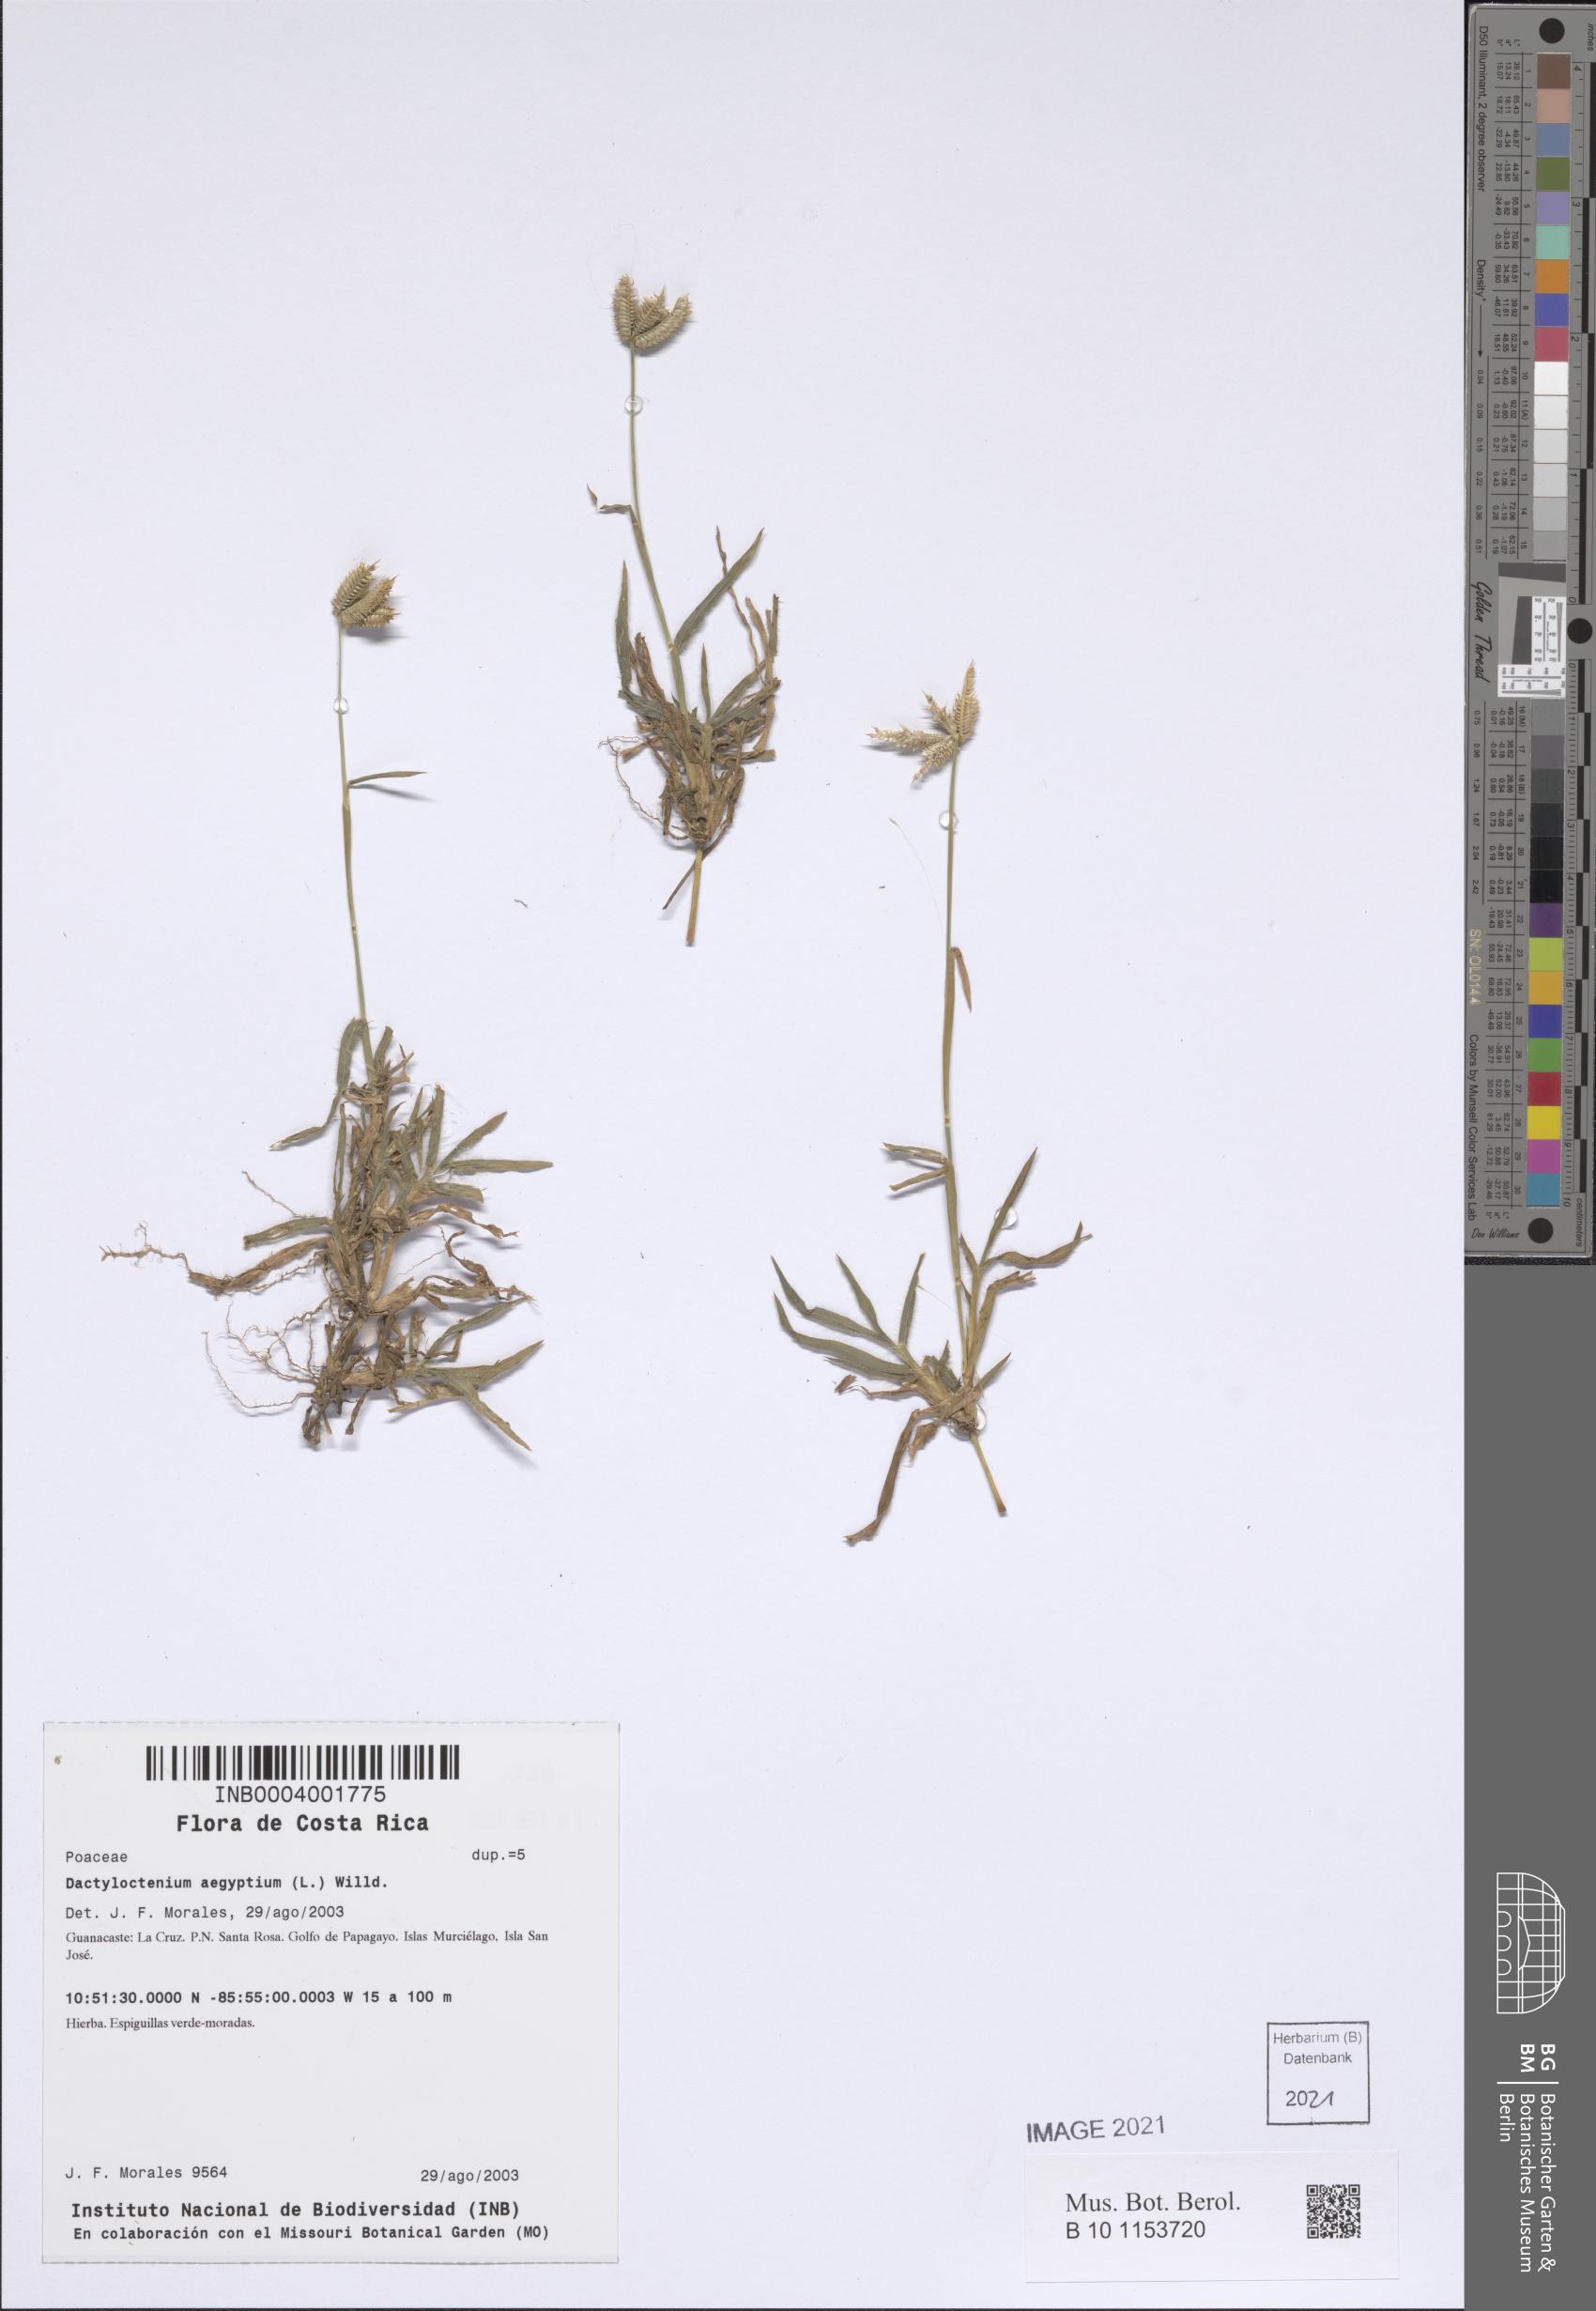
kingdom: Plantae
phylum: Tracheophyta
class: Liliopsida
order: Poales
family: Poaceae
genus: Dactyloctenium
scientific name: Dactyloctenium aegyptium
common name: Egyptian grass
